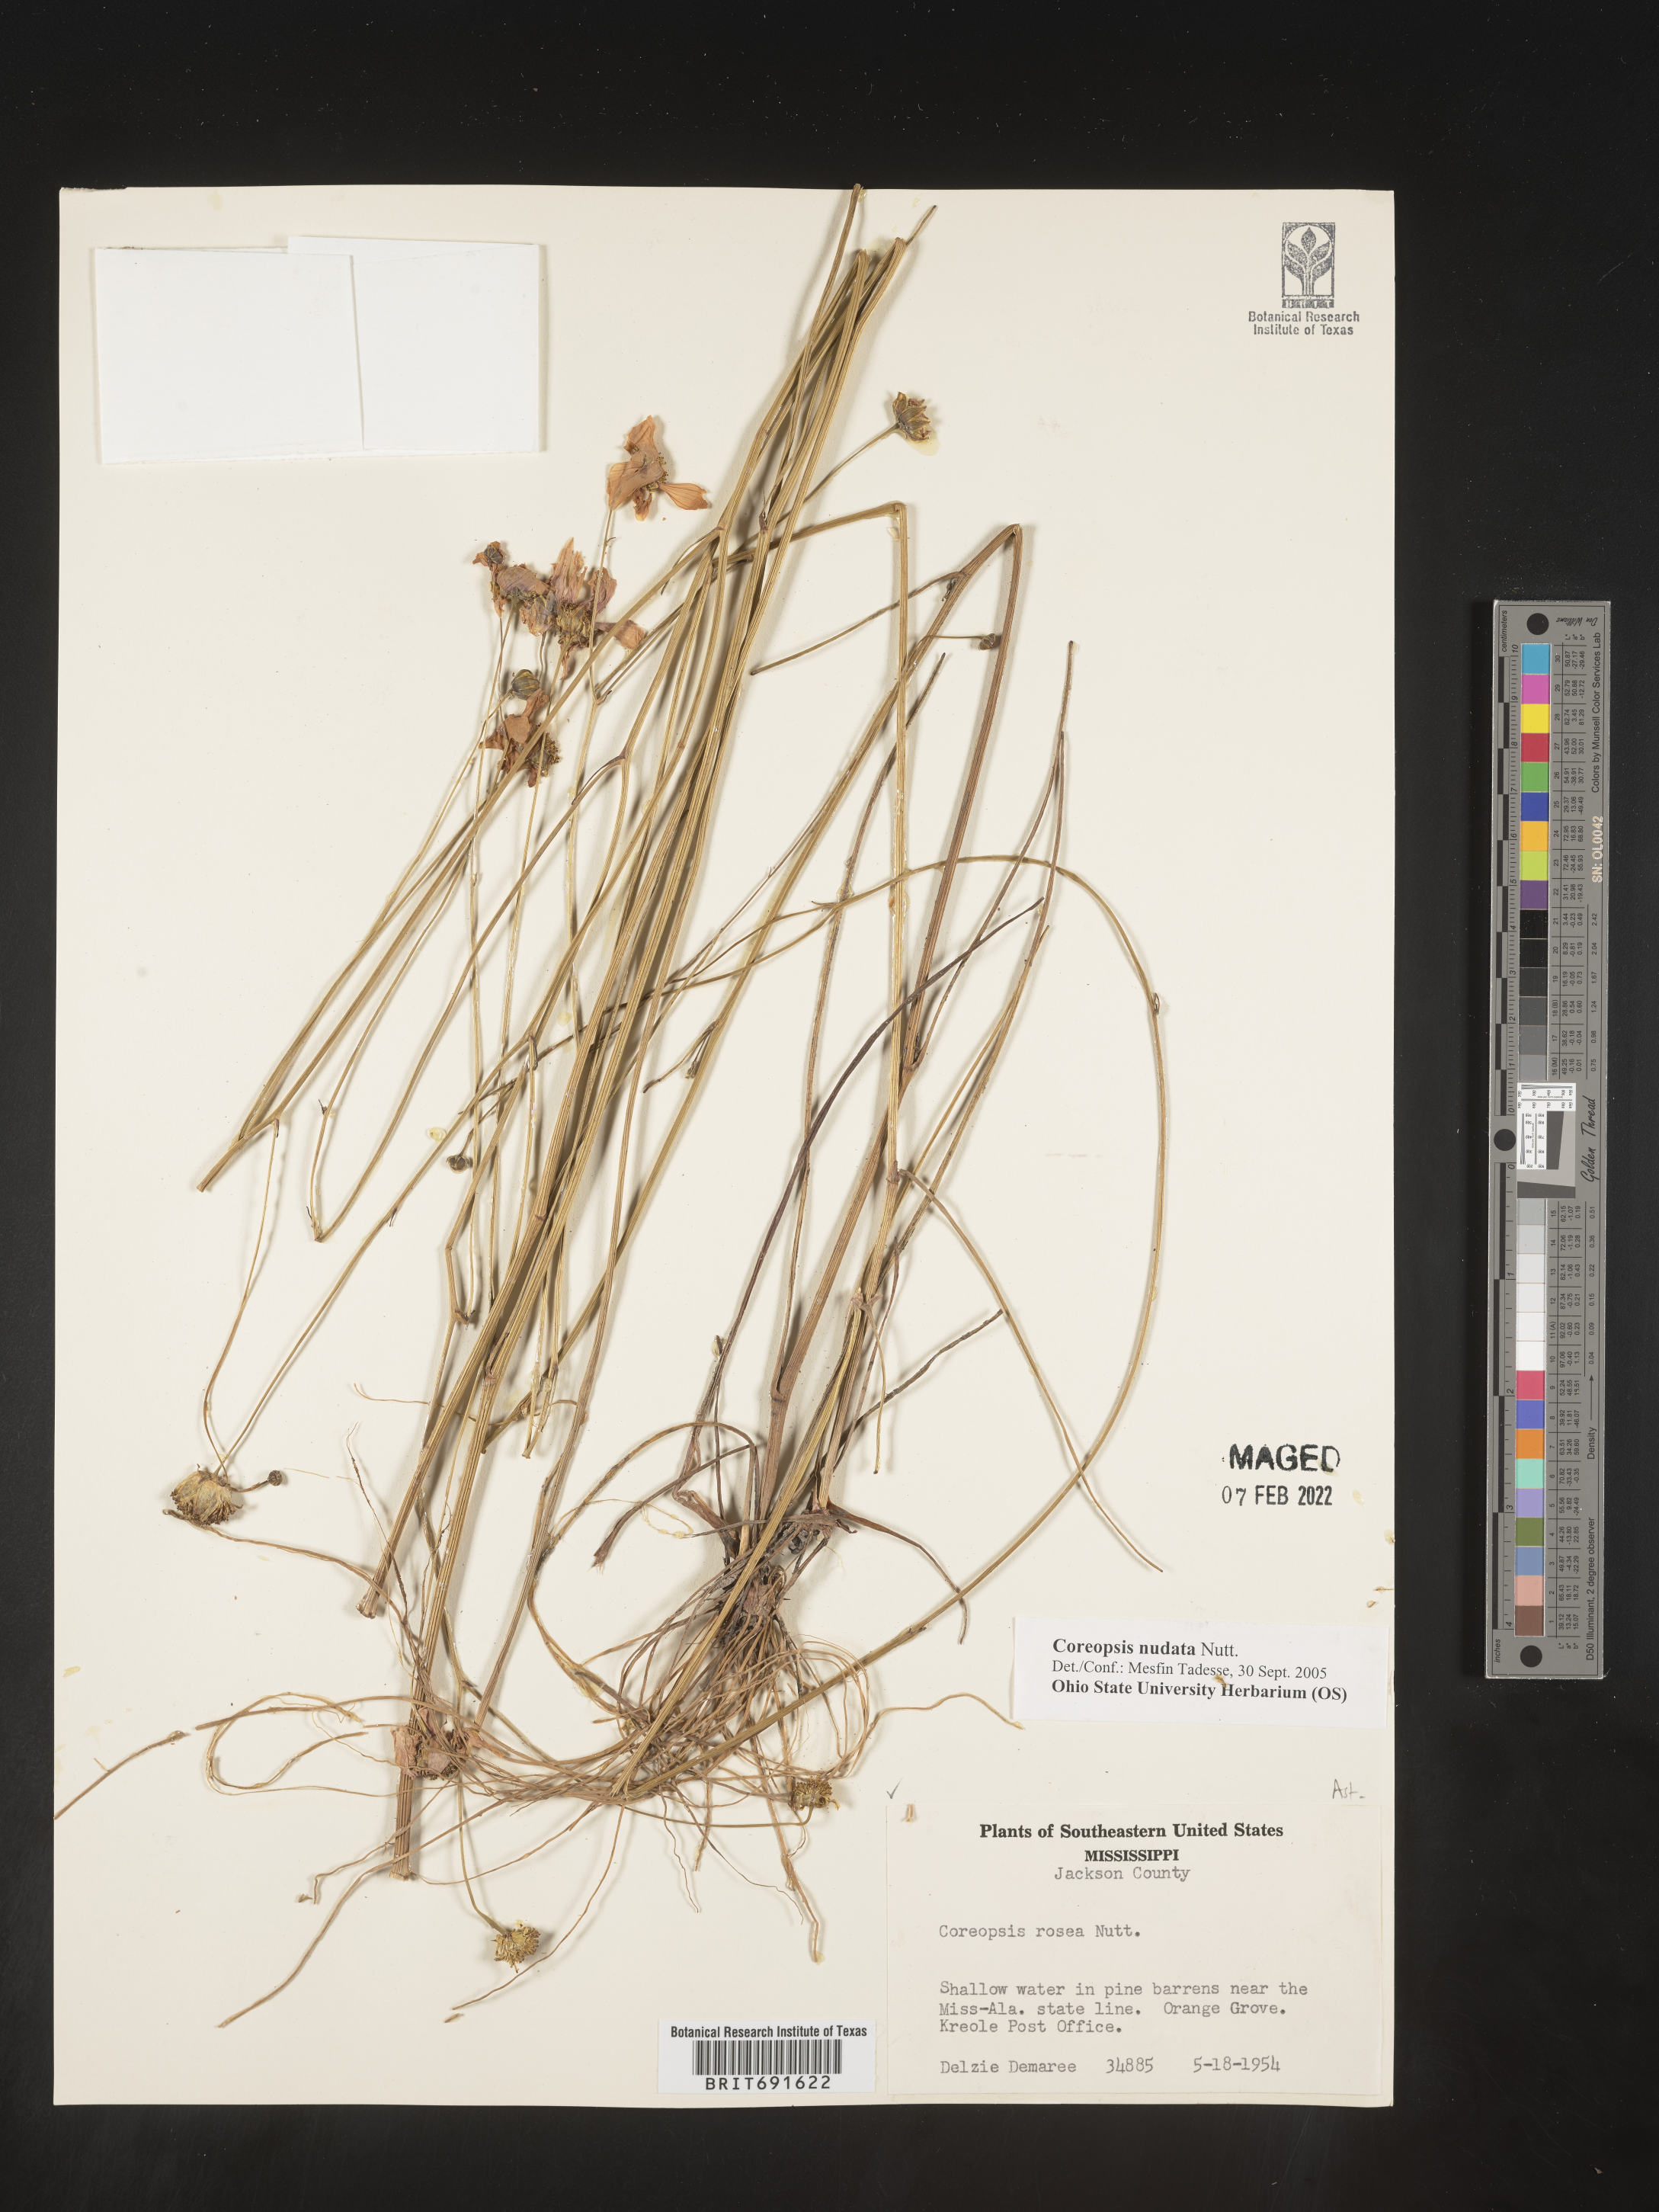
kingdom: Plantae
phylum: Tracheophyta
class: Magnoliopsida
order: Asterales
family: Asteraceae
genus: Coreopsis
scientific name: Coreopsis nudata
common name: Purple tickseed
